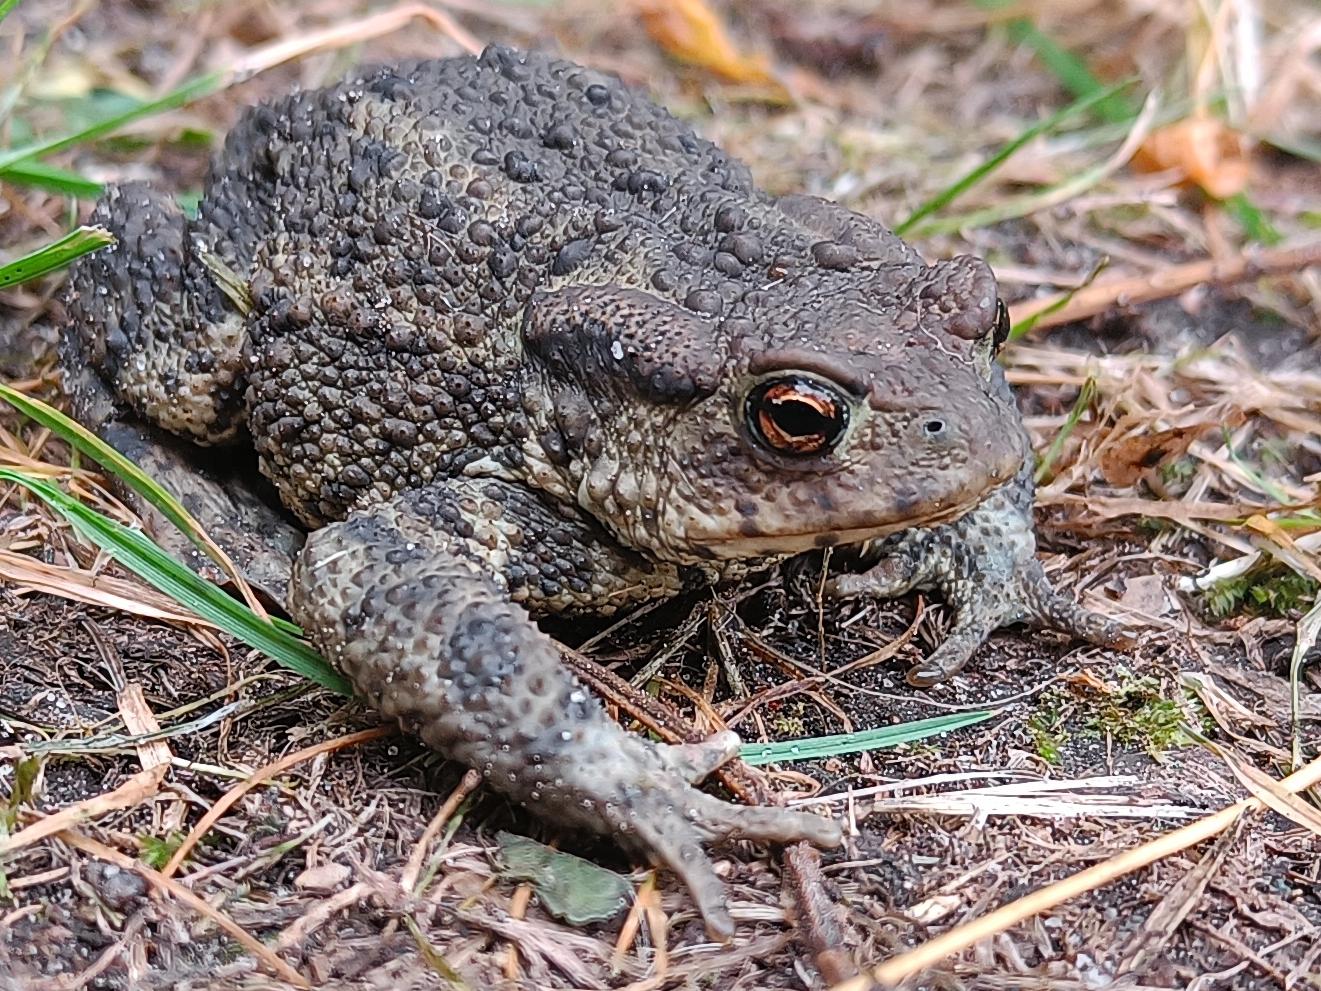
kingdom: Animalia
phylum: Chordata
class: Amphibia
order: Anura
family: Bufonidae
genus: Bufo
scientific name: Bufo bufo
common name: Skrubtudse
